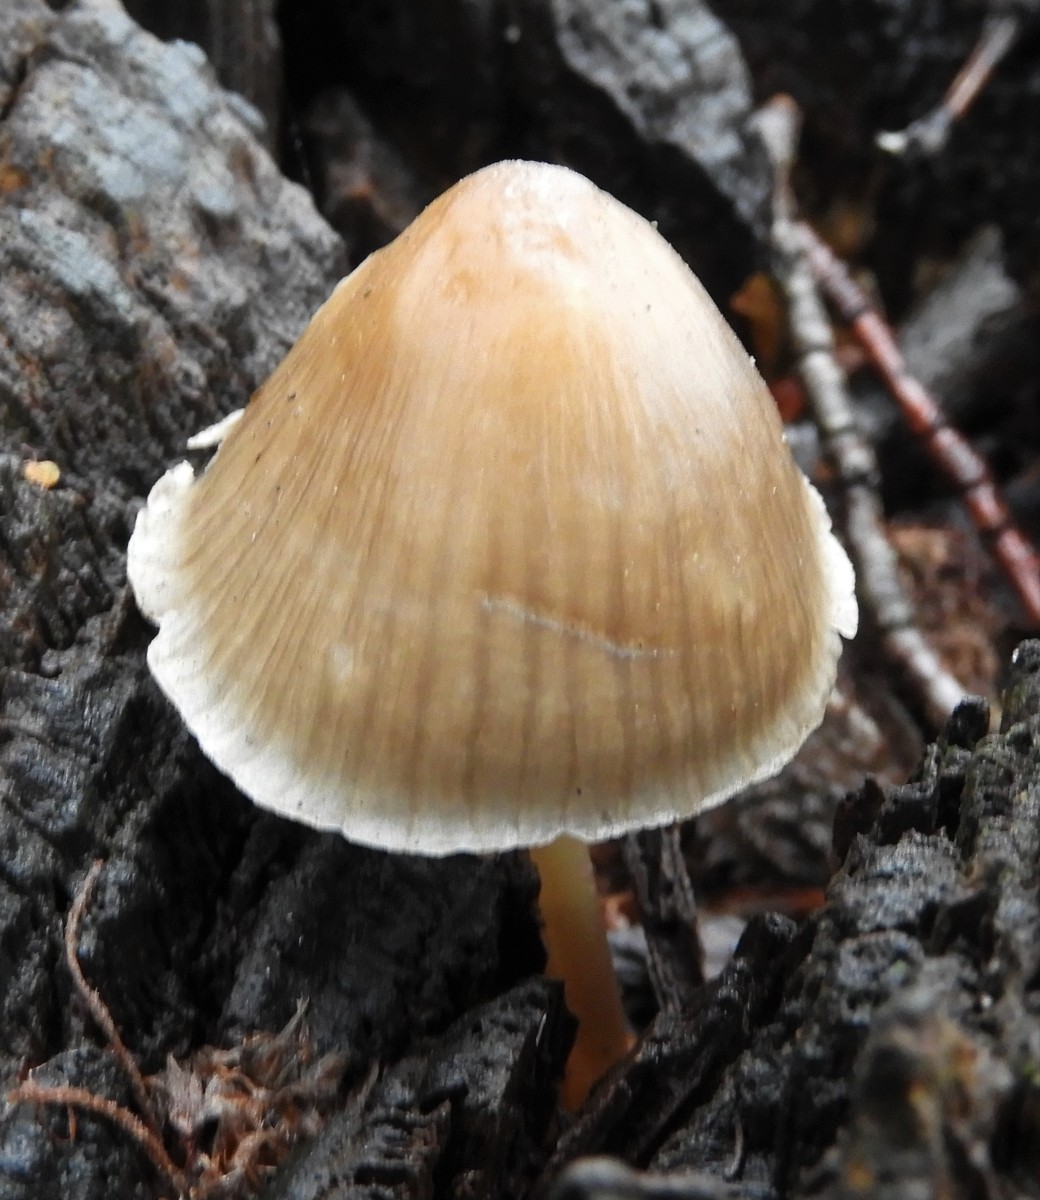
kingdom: Fungi
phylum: Basidiomycota
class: Agaricomycetes
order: Agaricales
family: Mycenaceae
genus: Mycena
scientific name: Mycena galericulata
